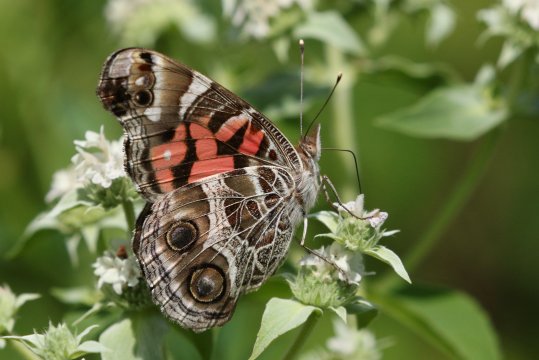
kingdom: Animalia
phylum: Arthropoda
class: Insecta
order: Lepidoptera
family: Nymphalidae
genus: Vanessa
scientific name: Vanessa virginiensis
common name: American Lady
